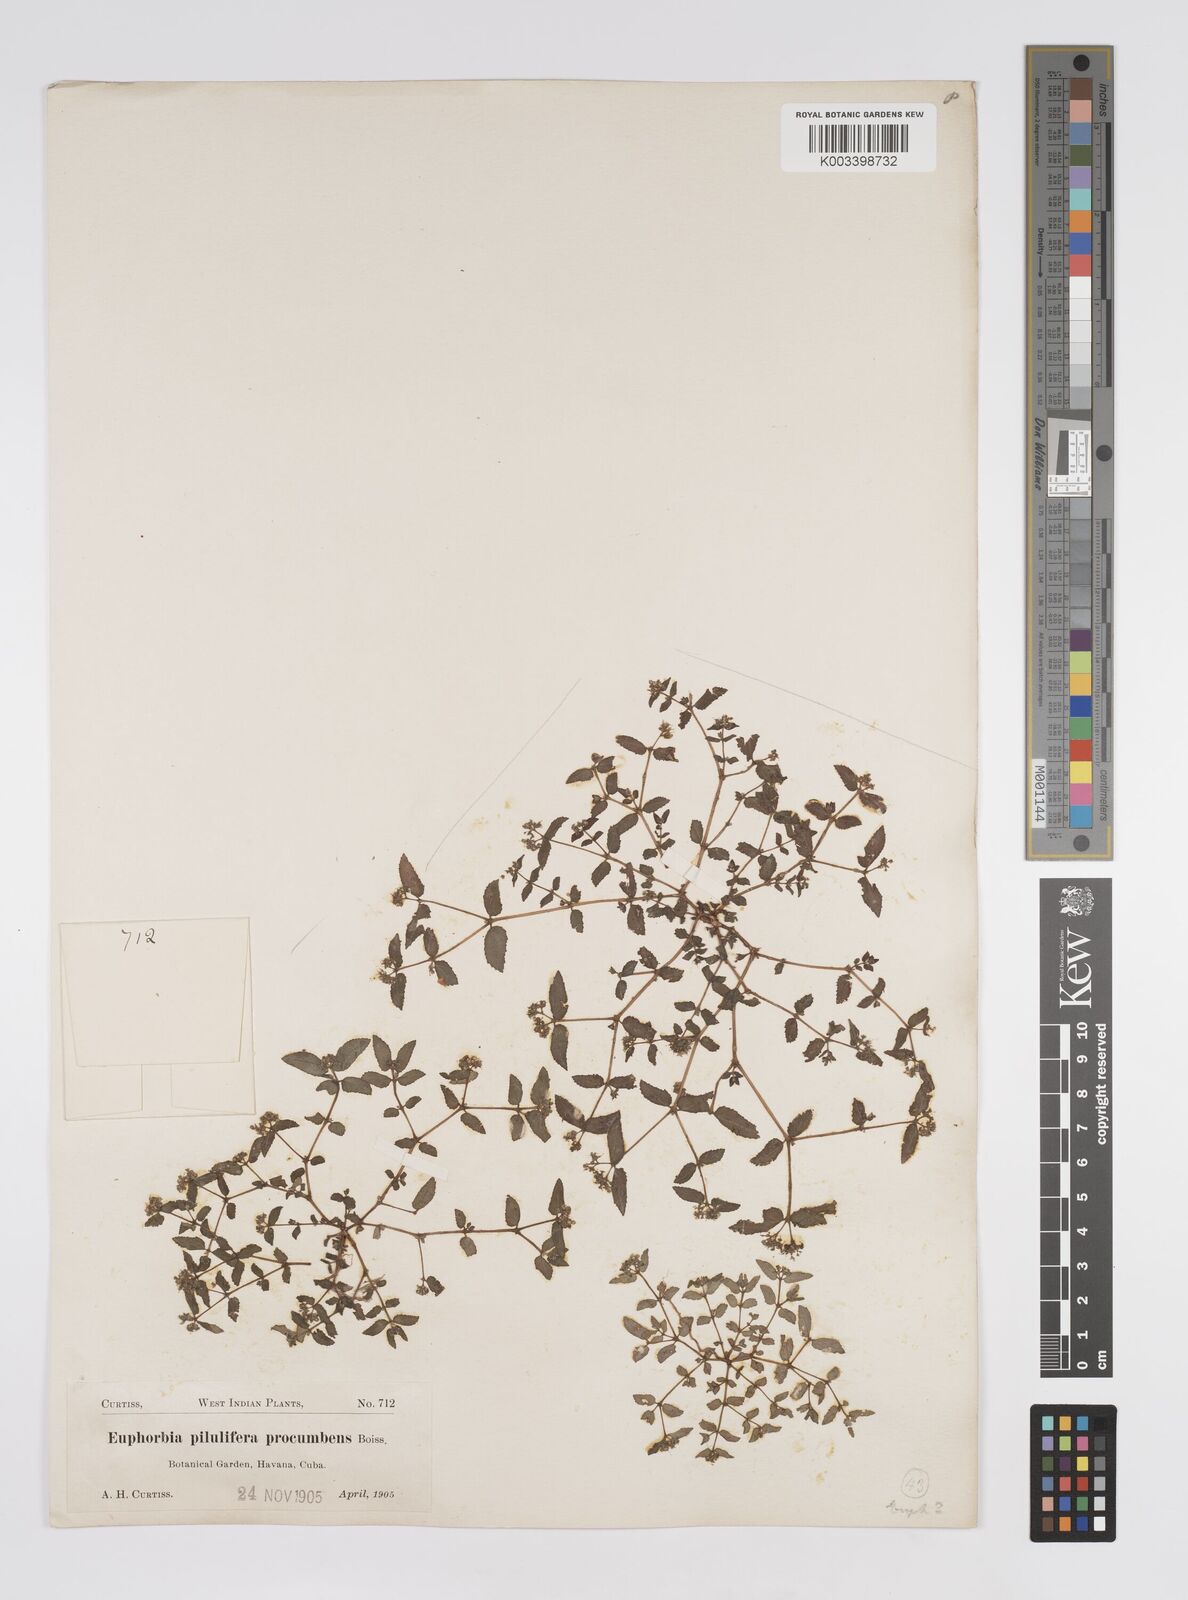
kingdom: Plantae
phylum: Tracheophyta
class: Magnoliopsida
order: Malpighiales
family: Euphorbiaceae
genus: Euphorbia
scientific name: Euphorbia hirta
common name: Pillpod sandmat
